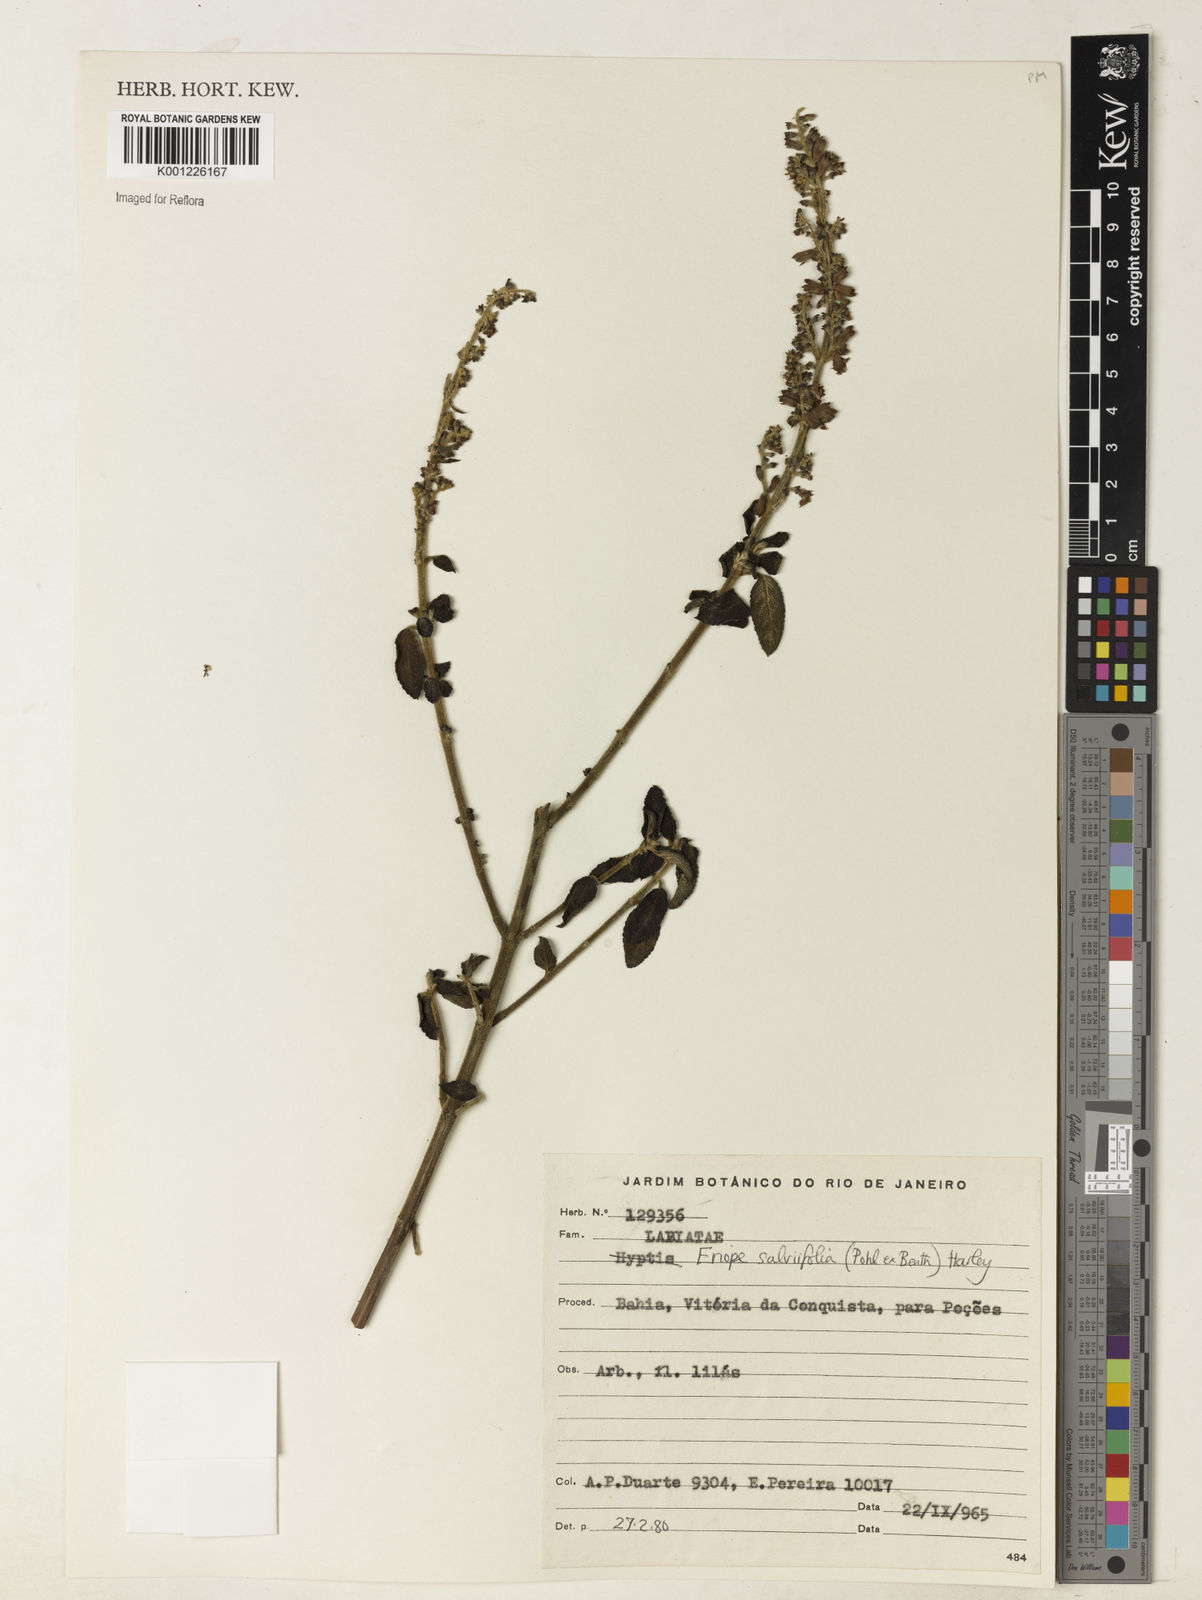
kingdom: Plantae
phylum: Tracheophyta
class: Magnoliopsida
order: Lamiales
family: Lamiaceae
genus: Eriope
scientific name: Eriope salviifolia
